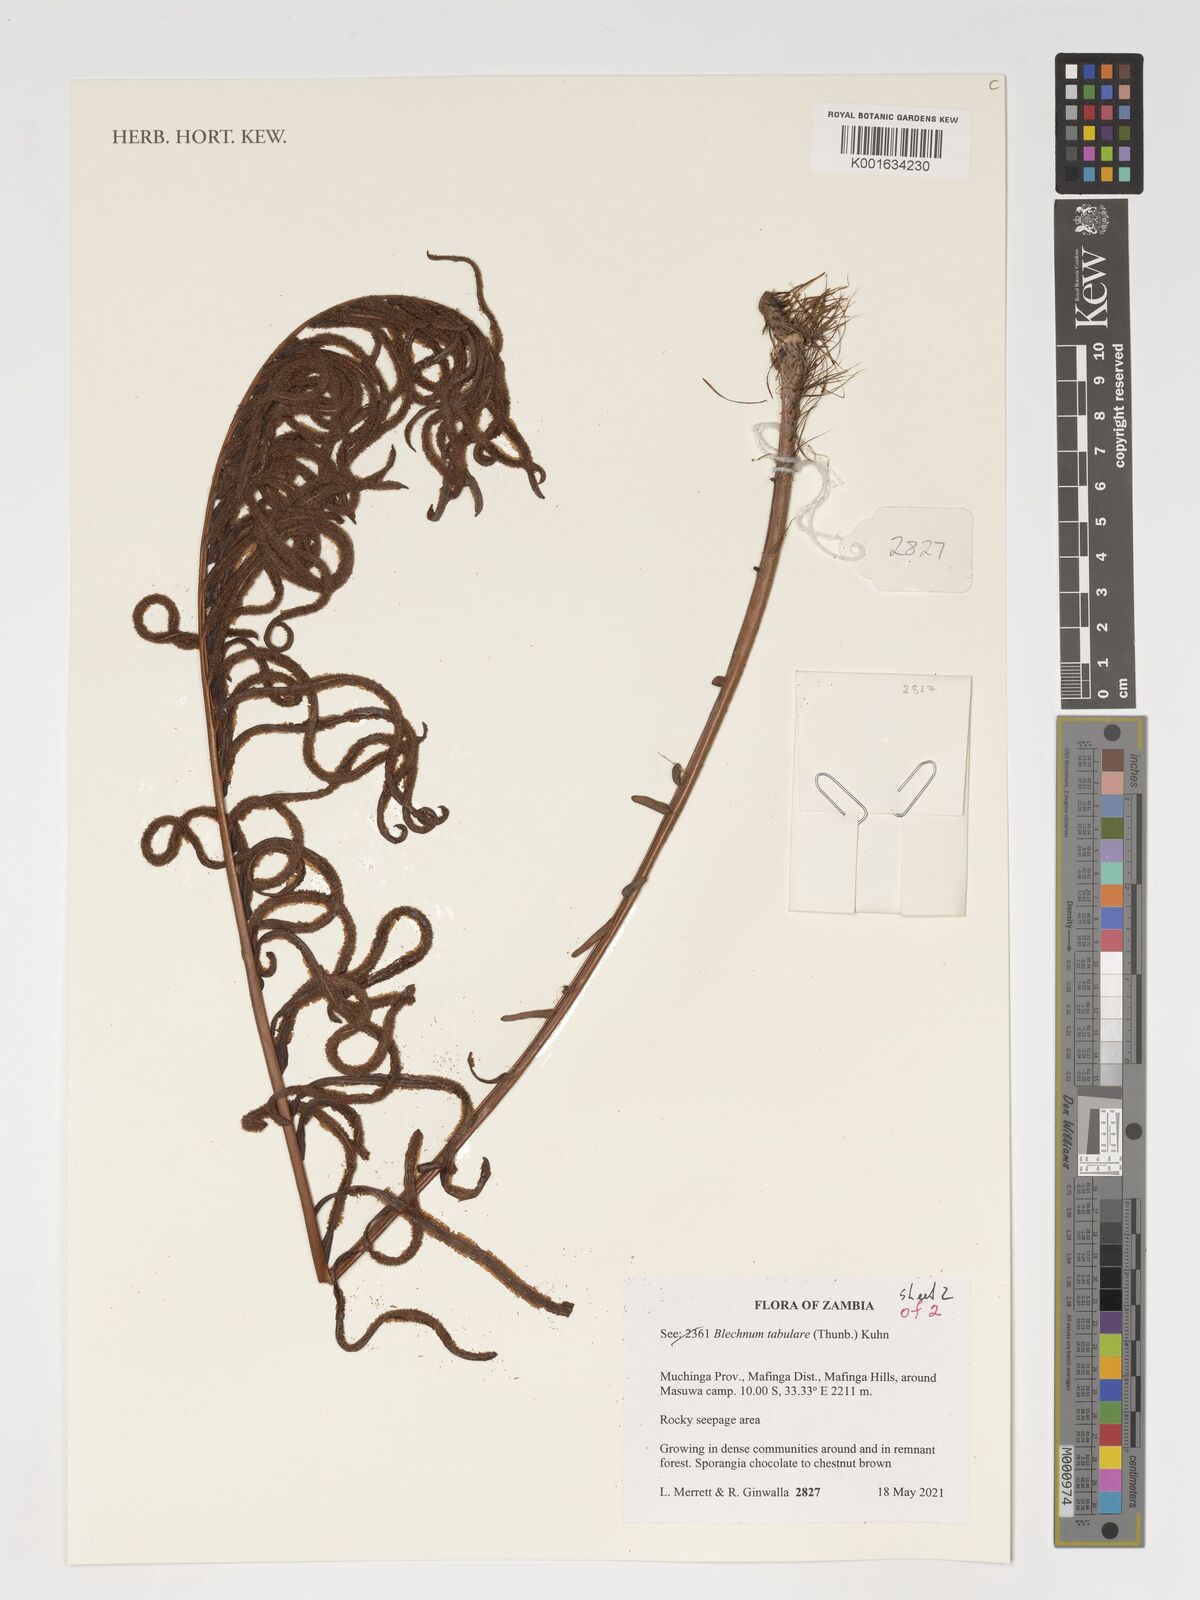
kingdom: Plantae
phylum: Tracheophyta
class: Polypodiopsida
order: Polypodiales
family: Blechnaceae
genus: Lomariocycas
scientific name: Lomariocycas tabularis
